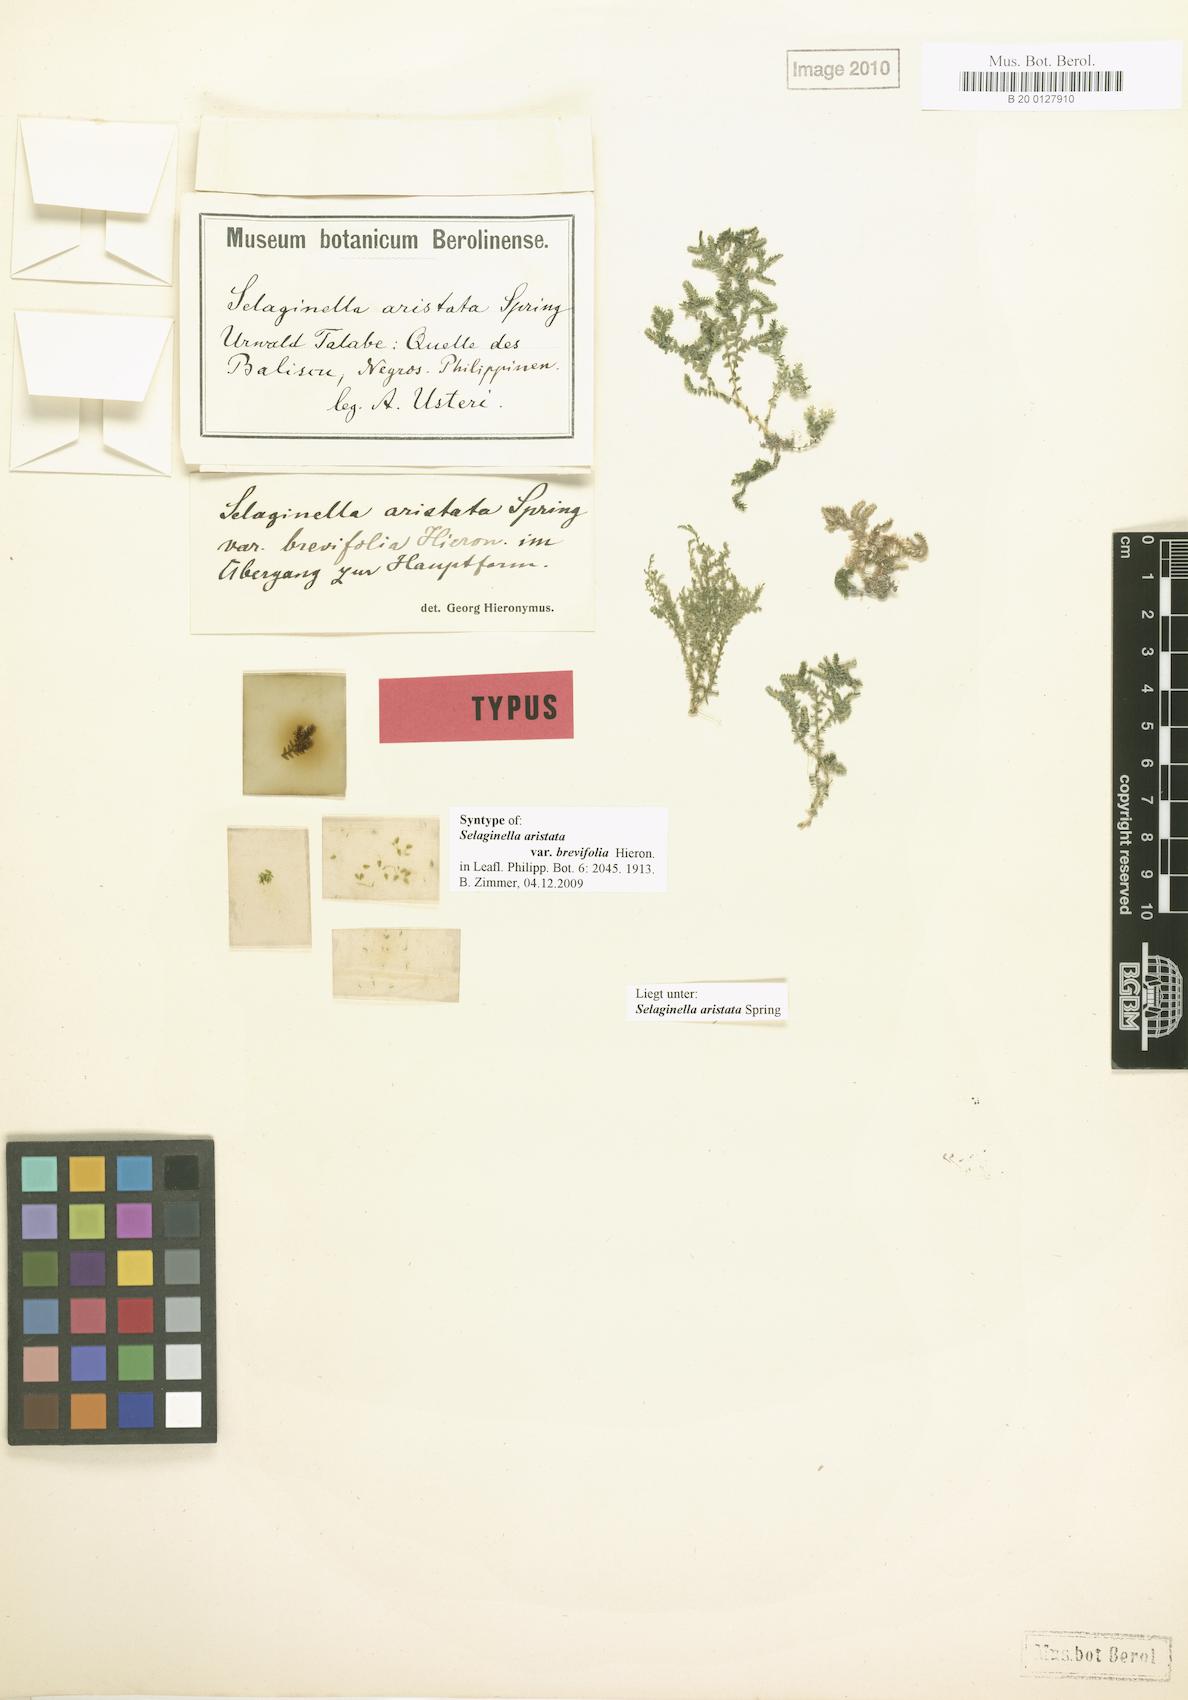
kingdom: Plantae
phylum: Tracheophyta
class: Lycopodiopsida
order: Selaginellales
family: Selaginellaceae
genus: Selaginella
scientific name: Selaginella aristata
